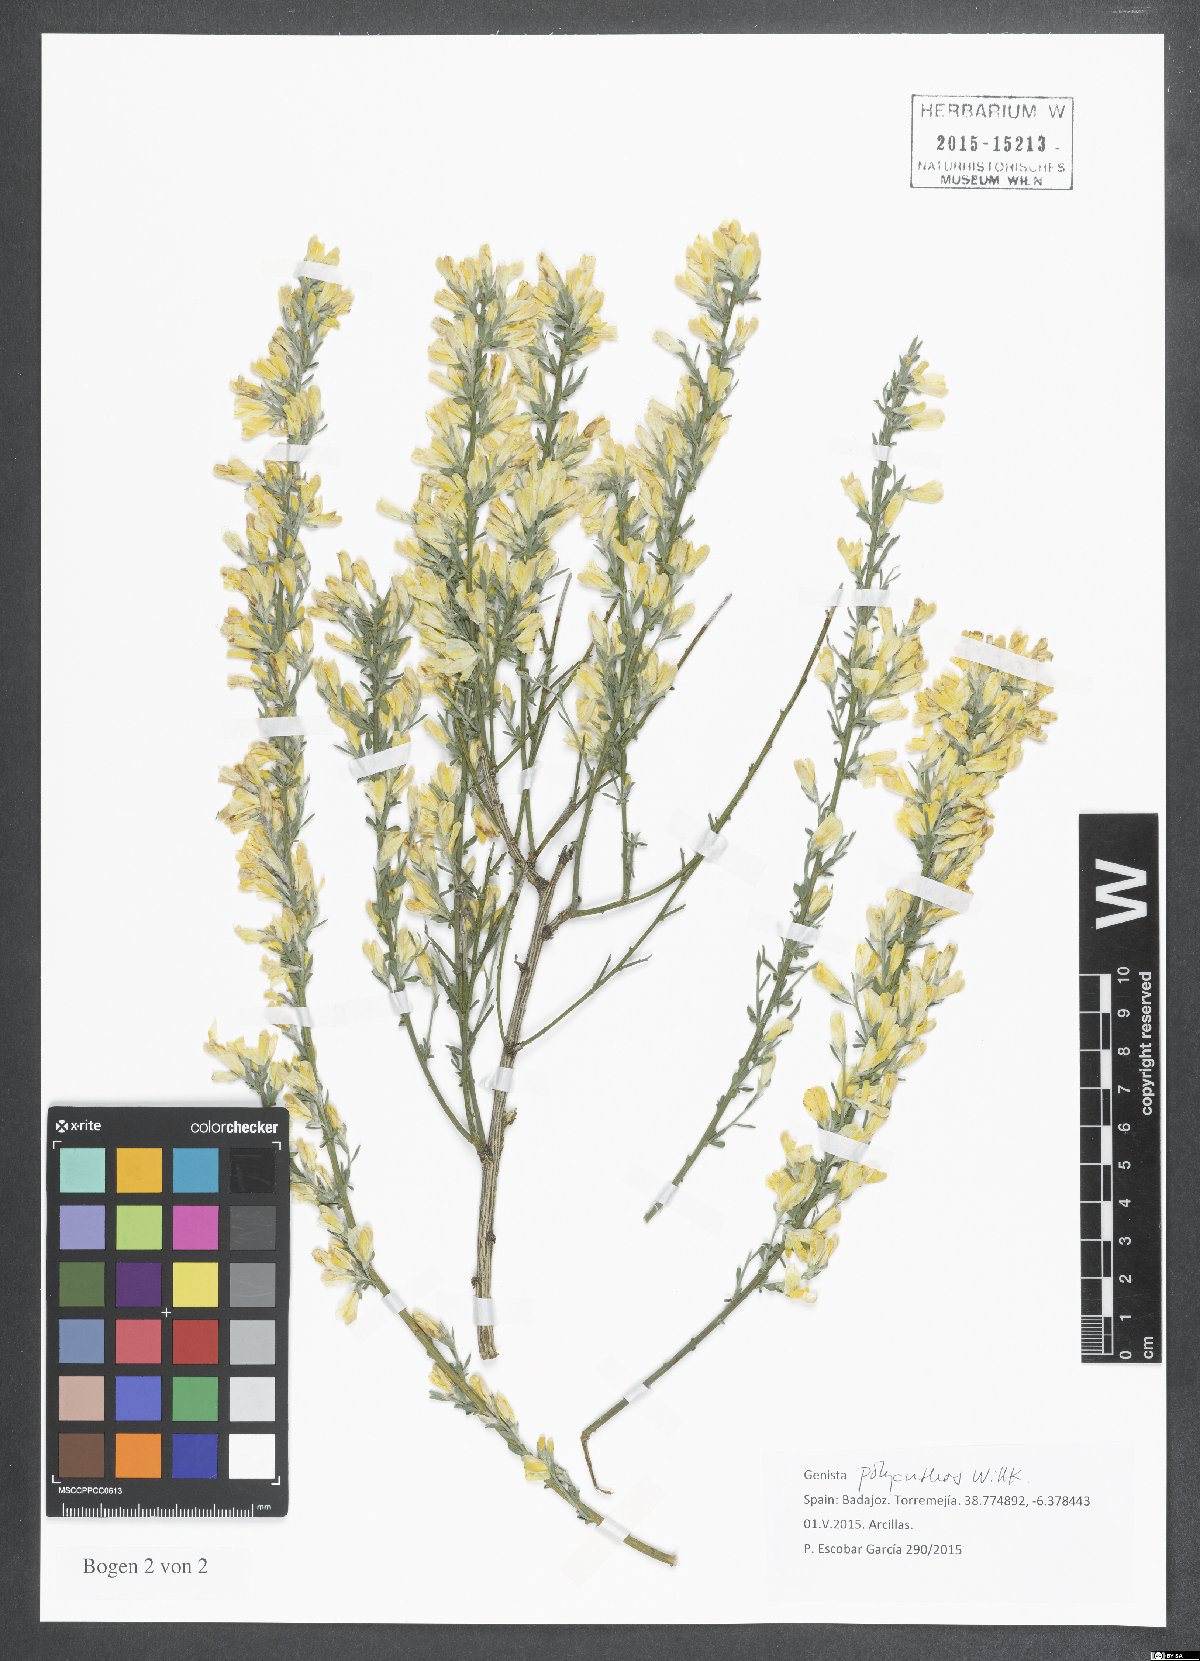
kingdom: Plantae
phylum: Tracheophyta
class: Magnoliopsida
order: Fabales
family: Fabaceae
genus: Genista
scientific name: Genista polyanthos
